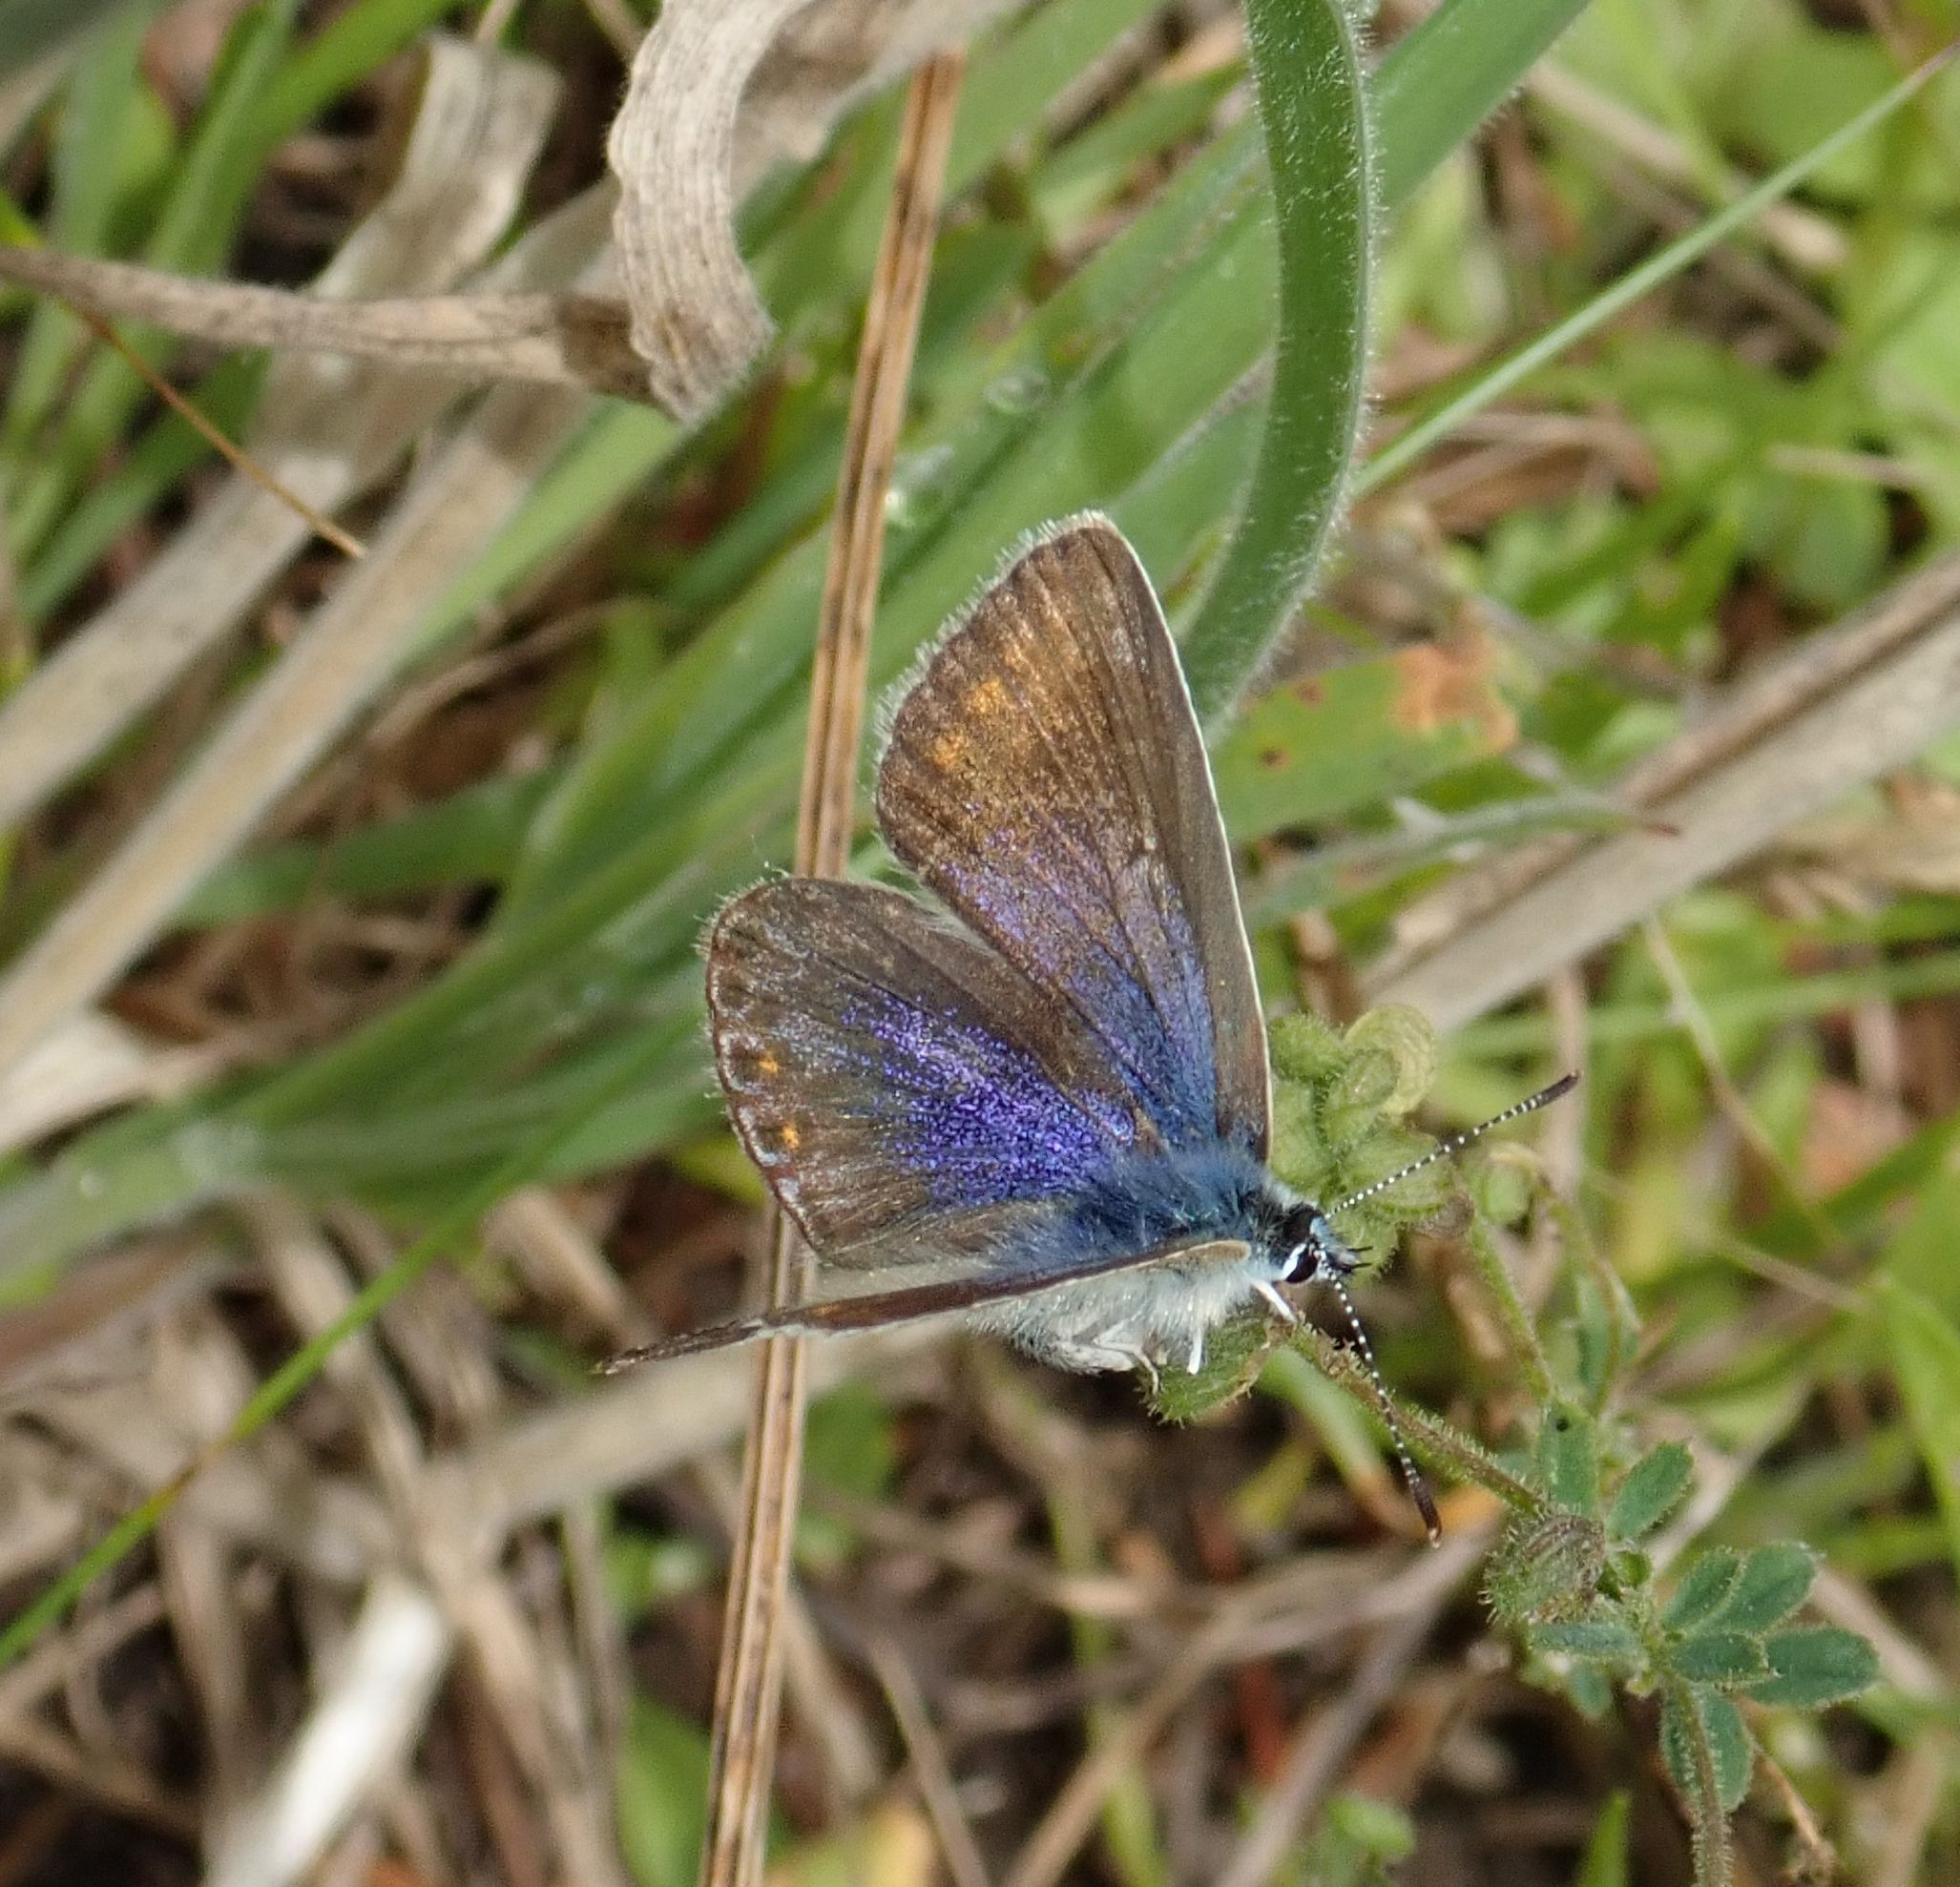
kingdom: Animalia
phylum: Arthropoda
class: Insecta
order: Lepidoptera
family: Lycaenidae
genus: Polyommatus
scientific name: Polyommatus icarus
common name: Almindelig blåfugl
